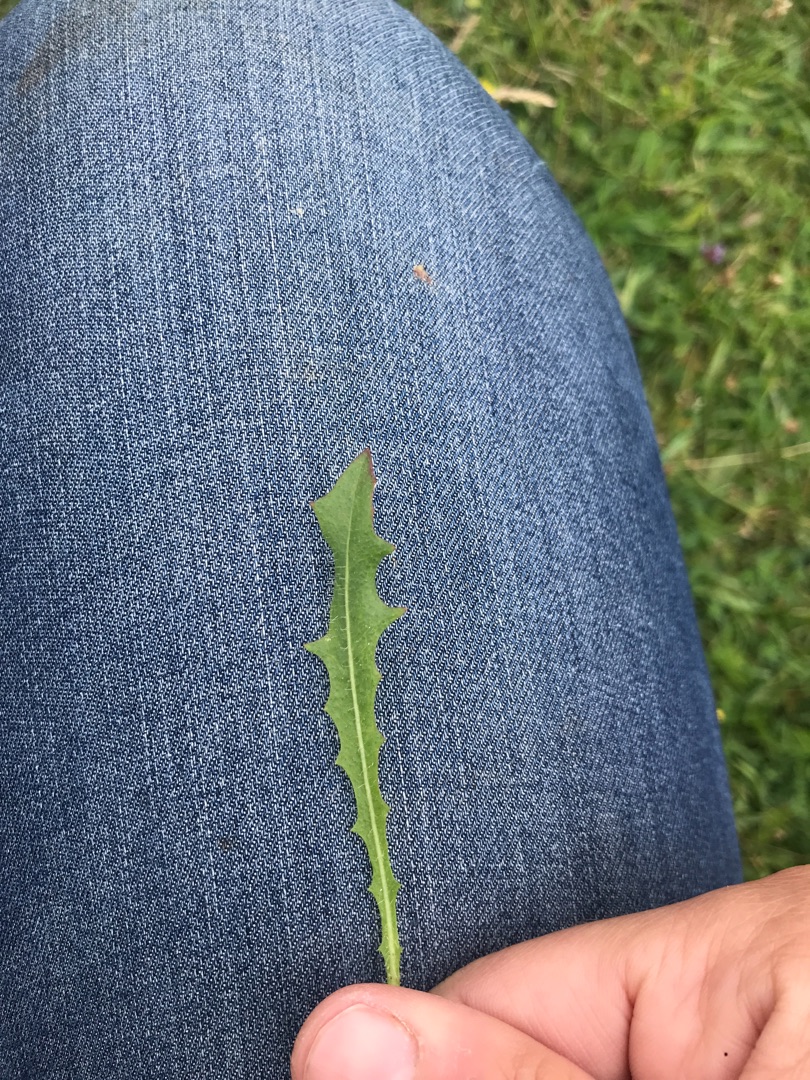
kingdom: Plantae
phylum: Tracheophyta
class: Magnoliopsida
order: Asterales
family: Asteraceae
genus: Thrincia
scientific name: Thrincia saxatilis
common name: Hundesalat
